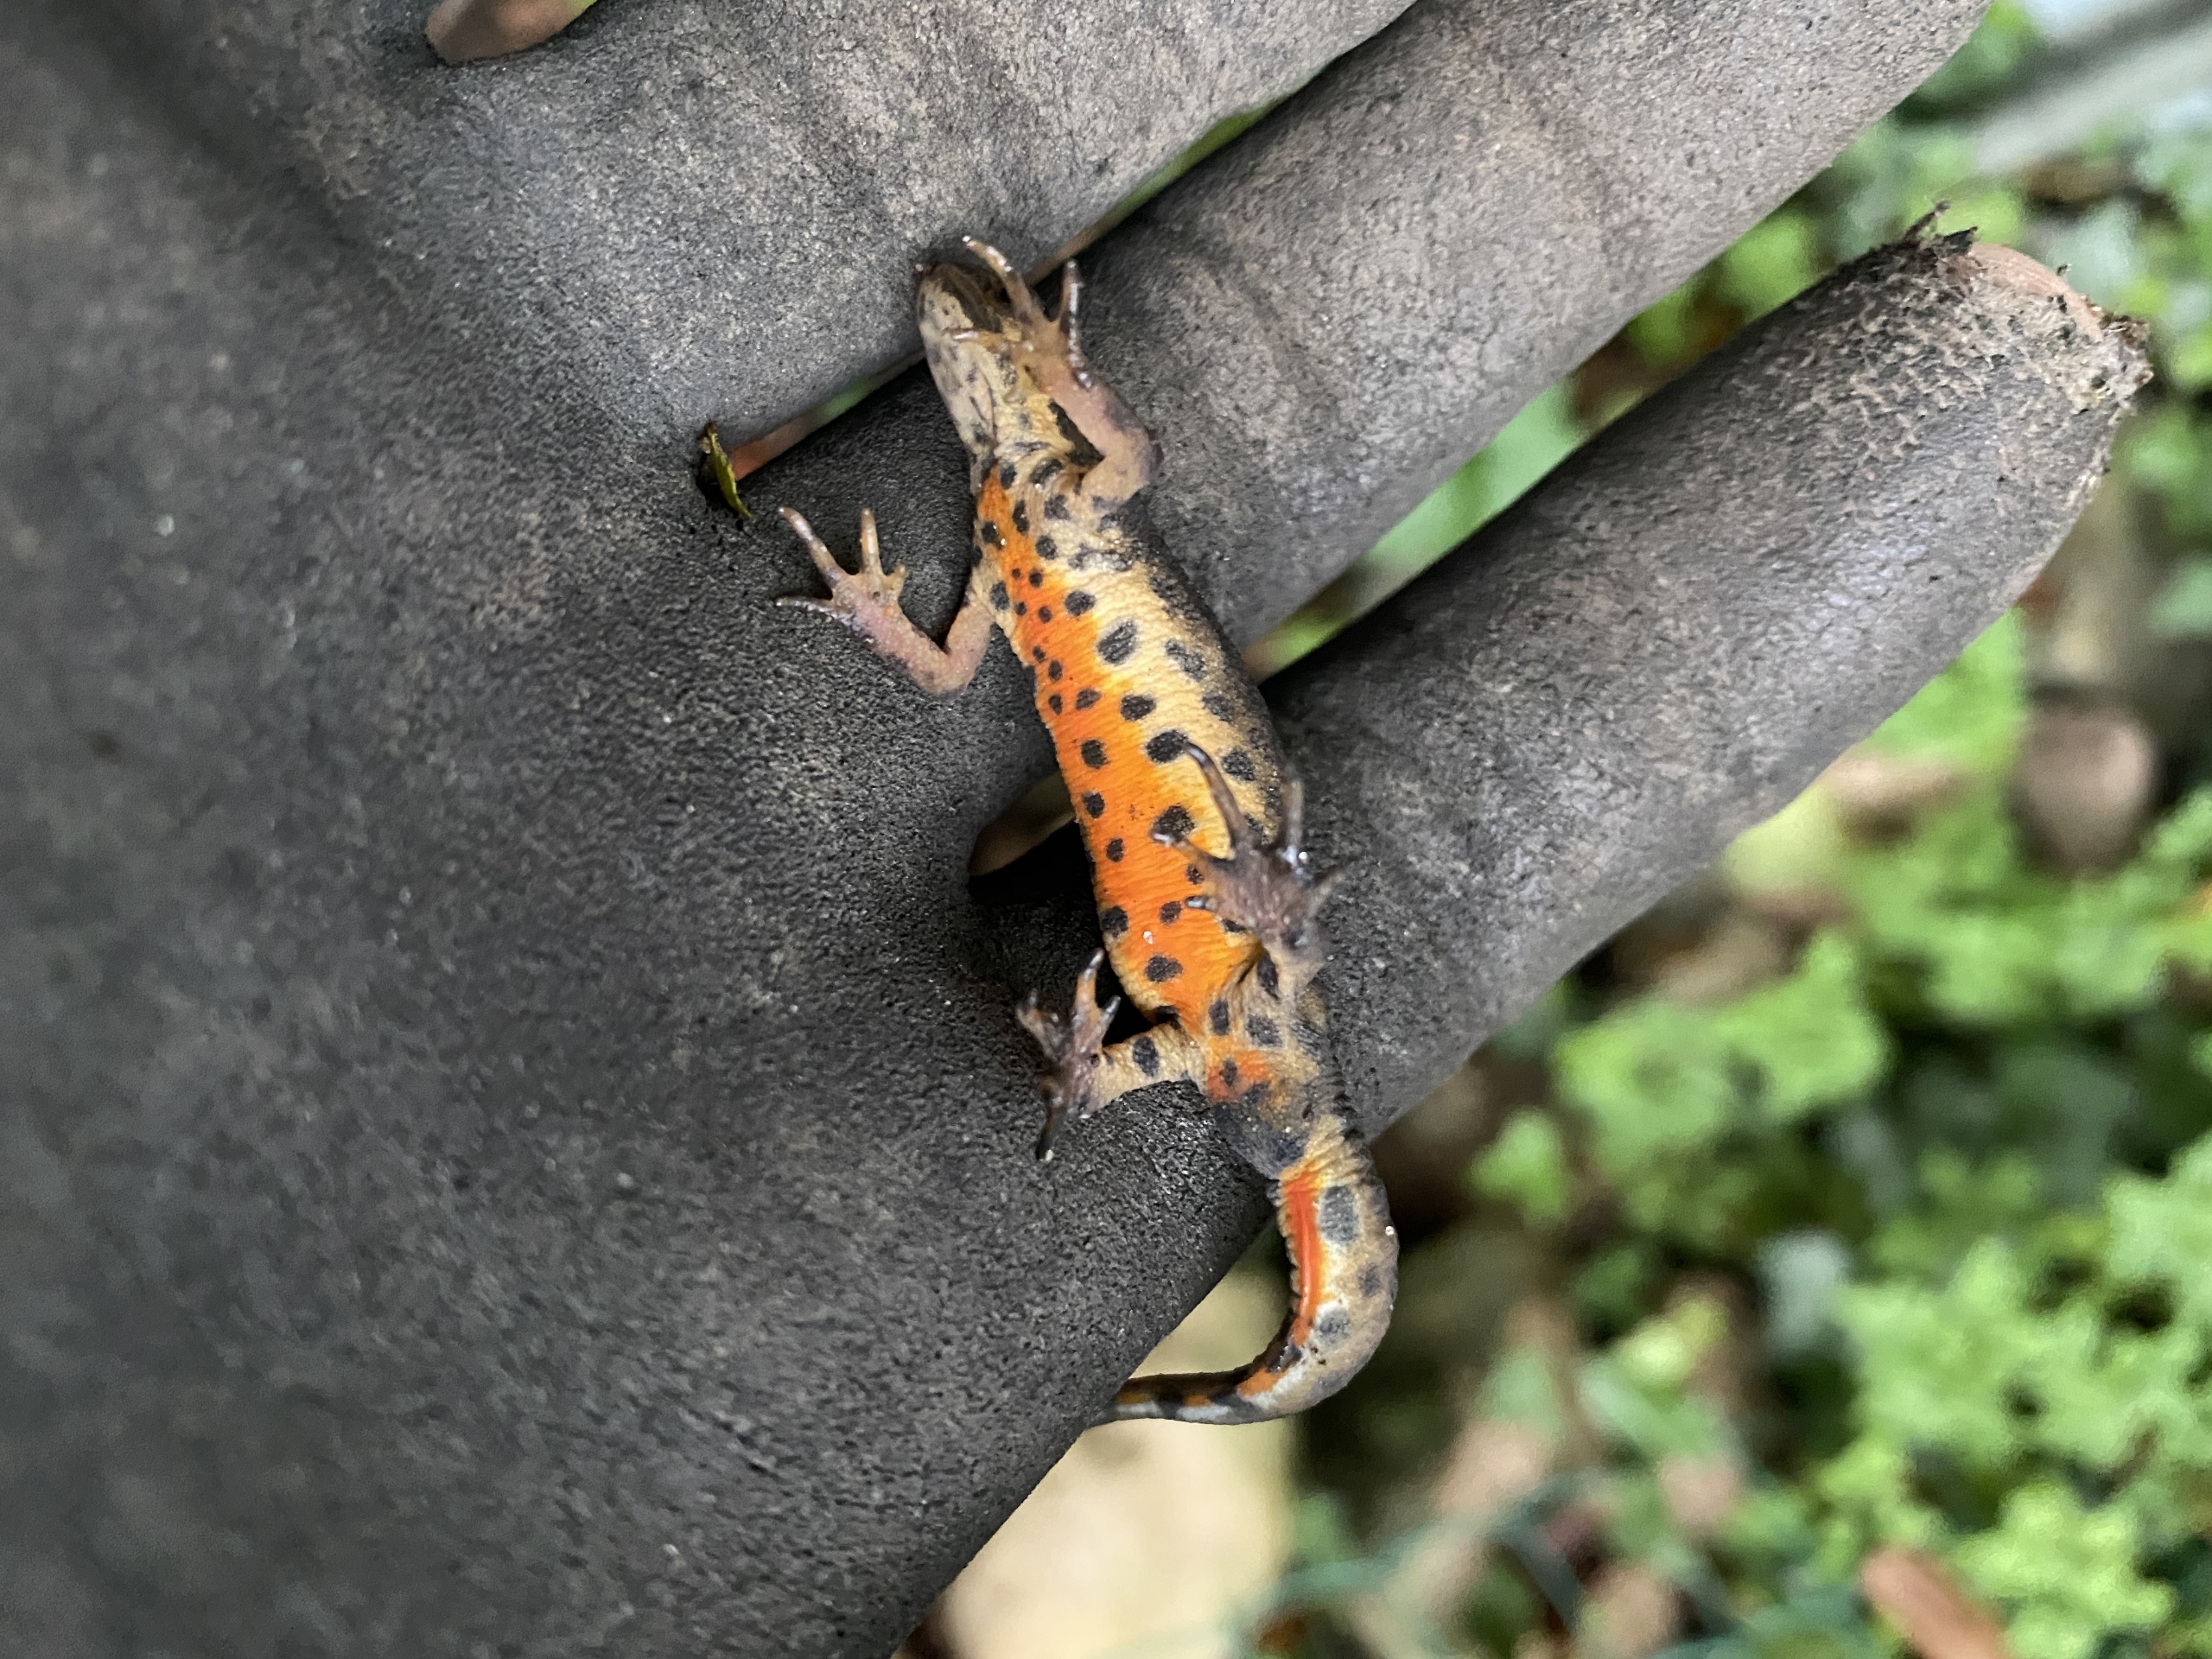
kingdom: Animalia
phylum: Chordata
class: Amphibia
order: Caudata
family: Salamandridae
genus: Lissotriton
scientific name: Lissotriton vulgaris
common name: Lille vandsalamander
